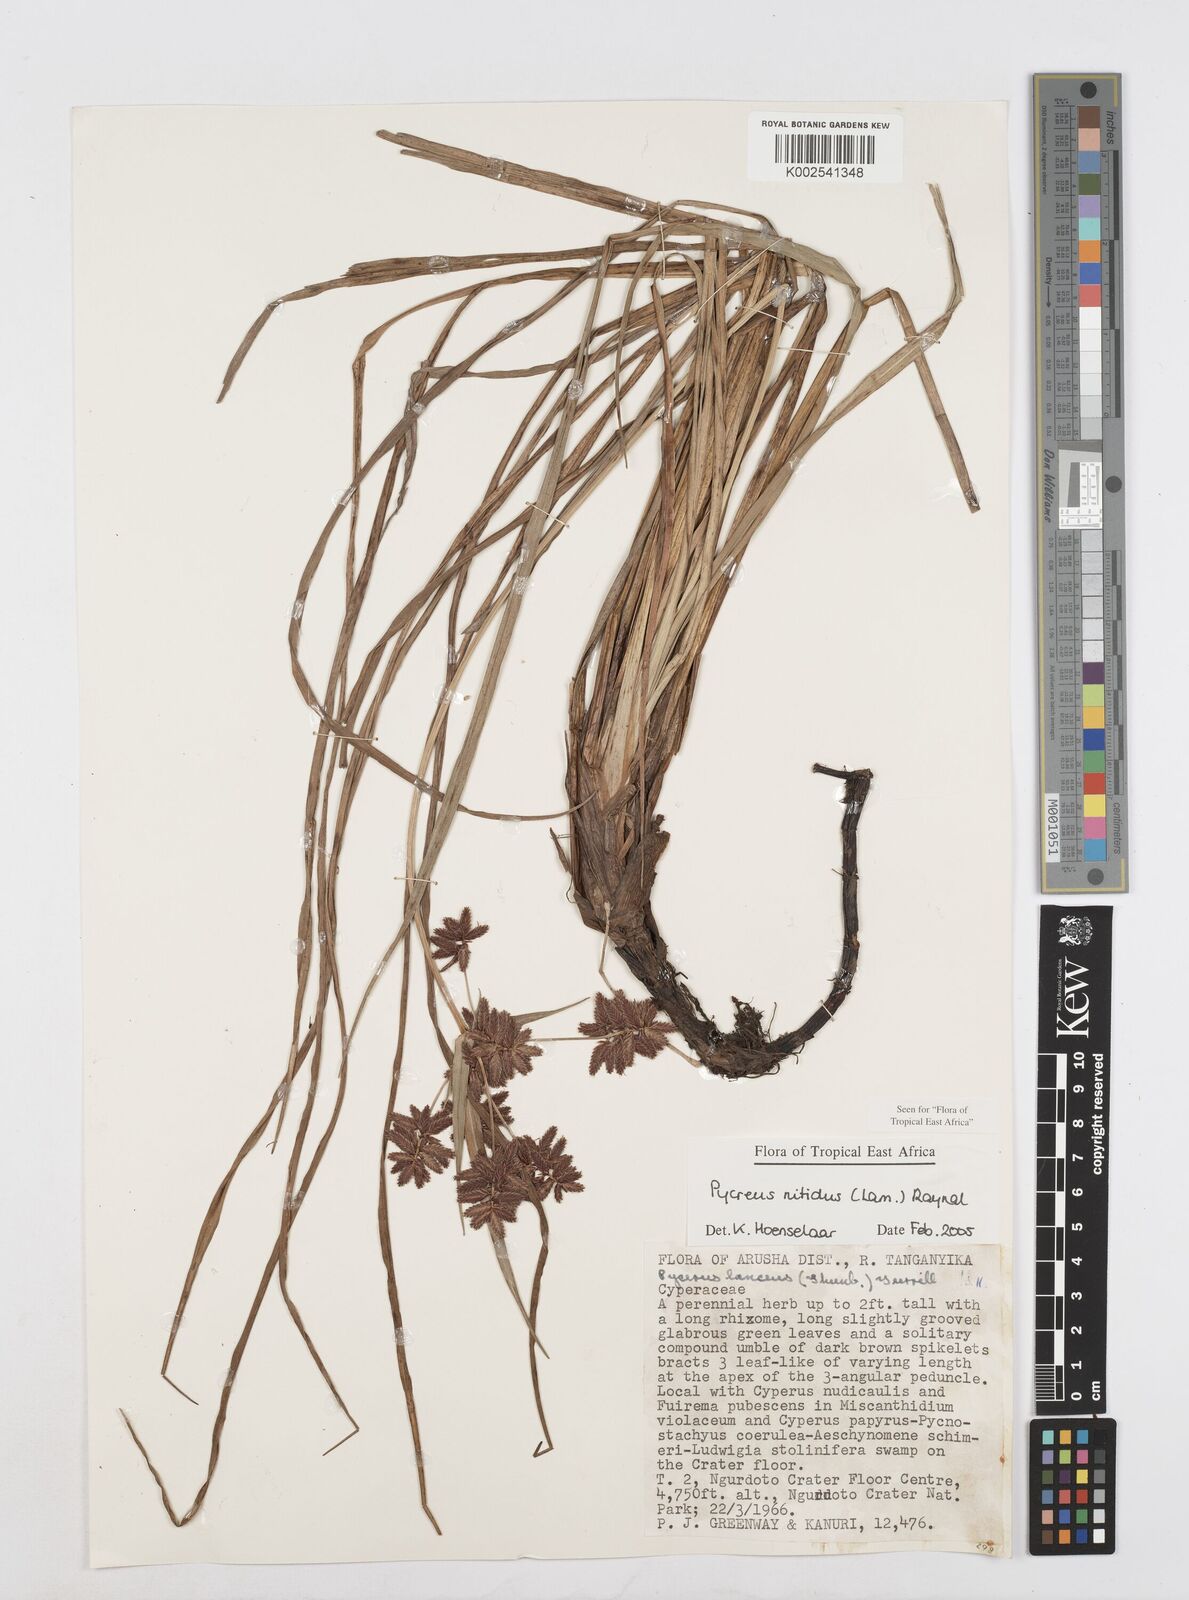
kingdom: Plantae
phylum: Tracheophyta
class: Liliopsida
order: Poales
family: Cyperaceae
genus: Cyperus
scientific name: Cyperus nitidus
